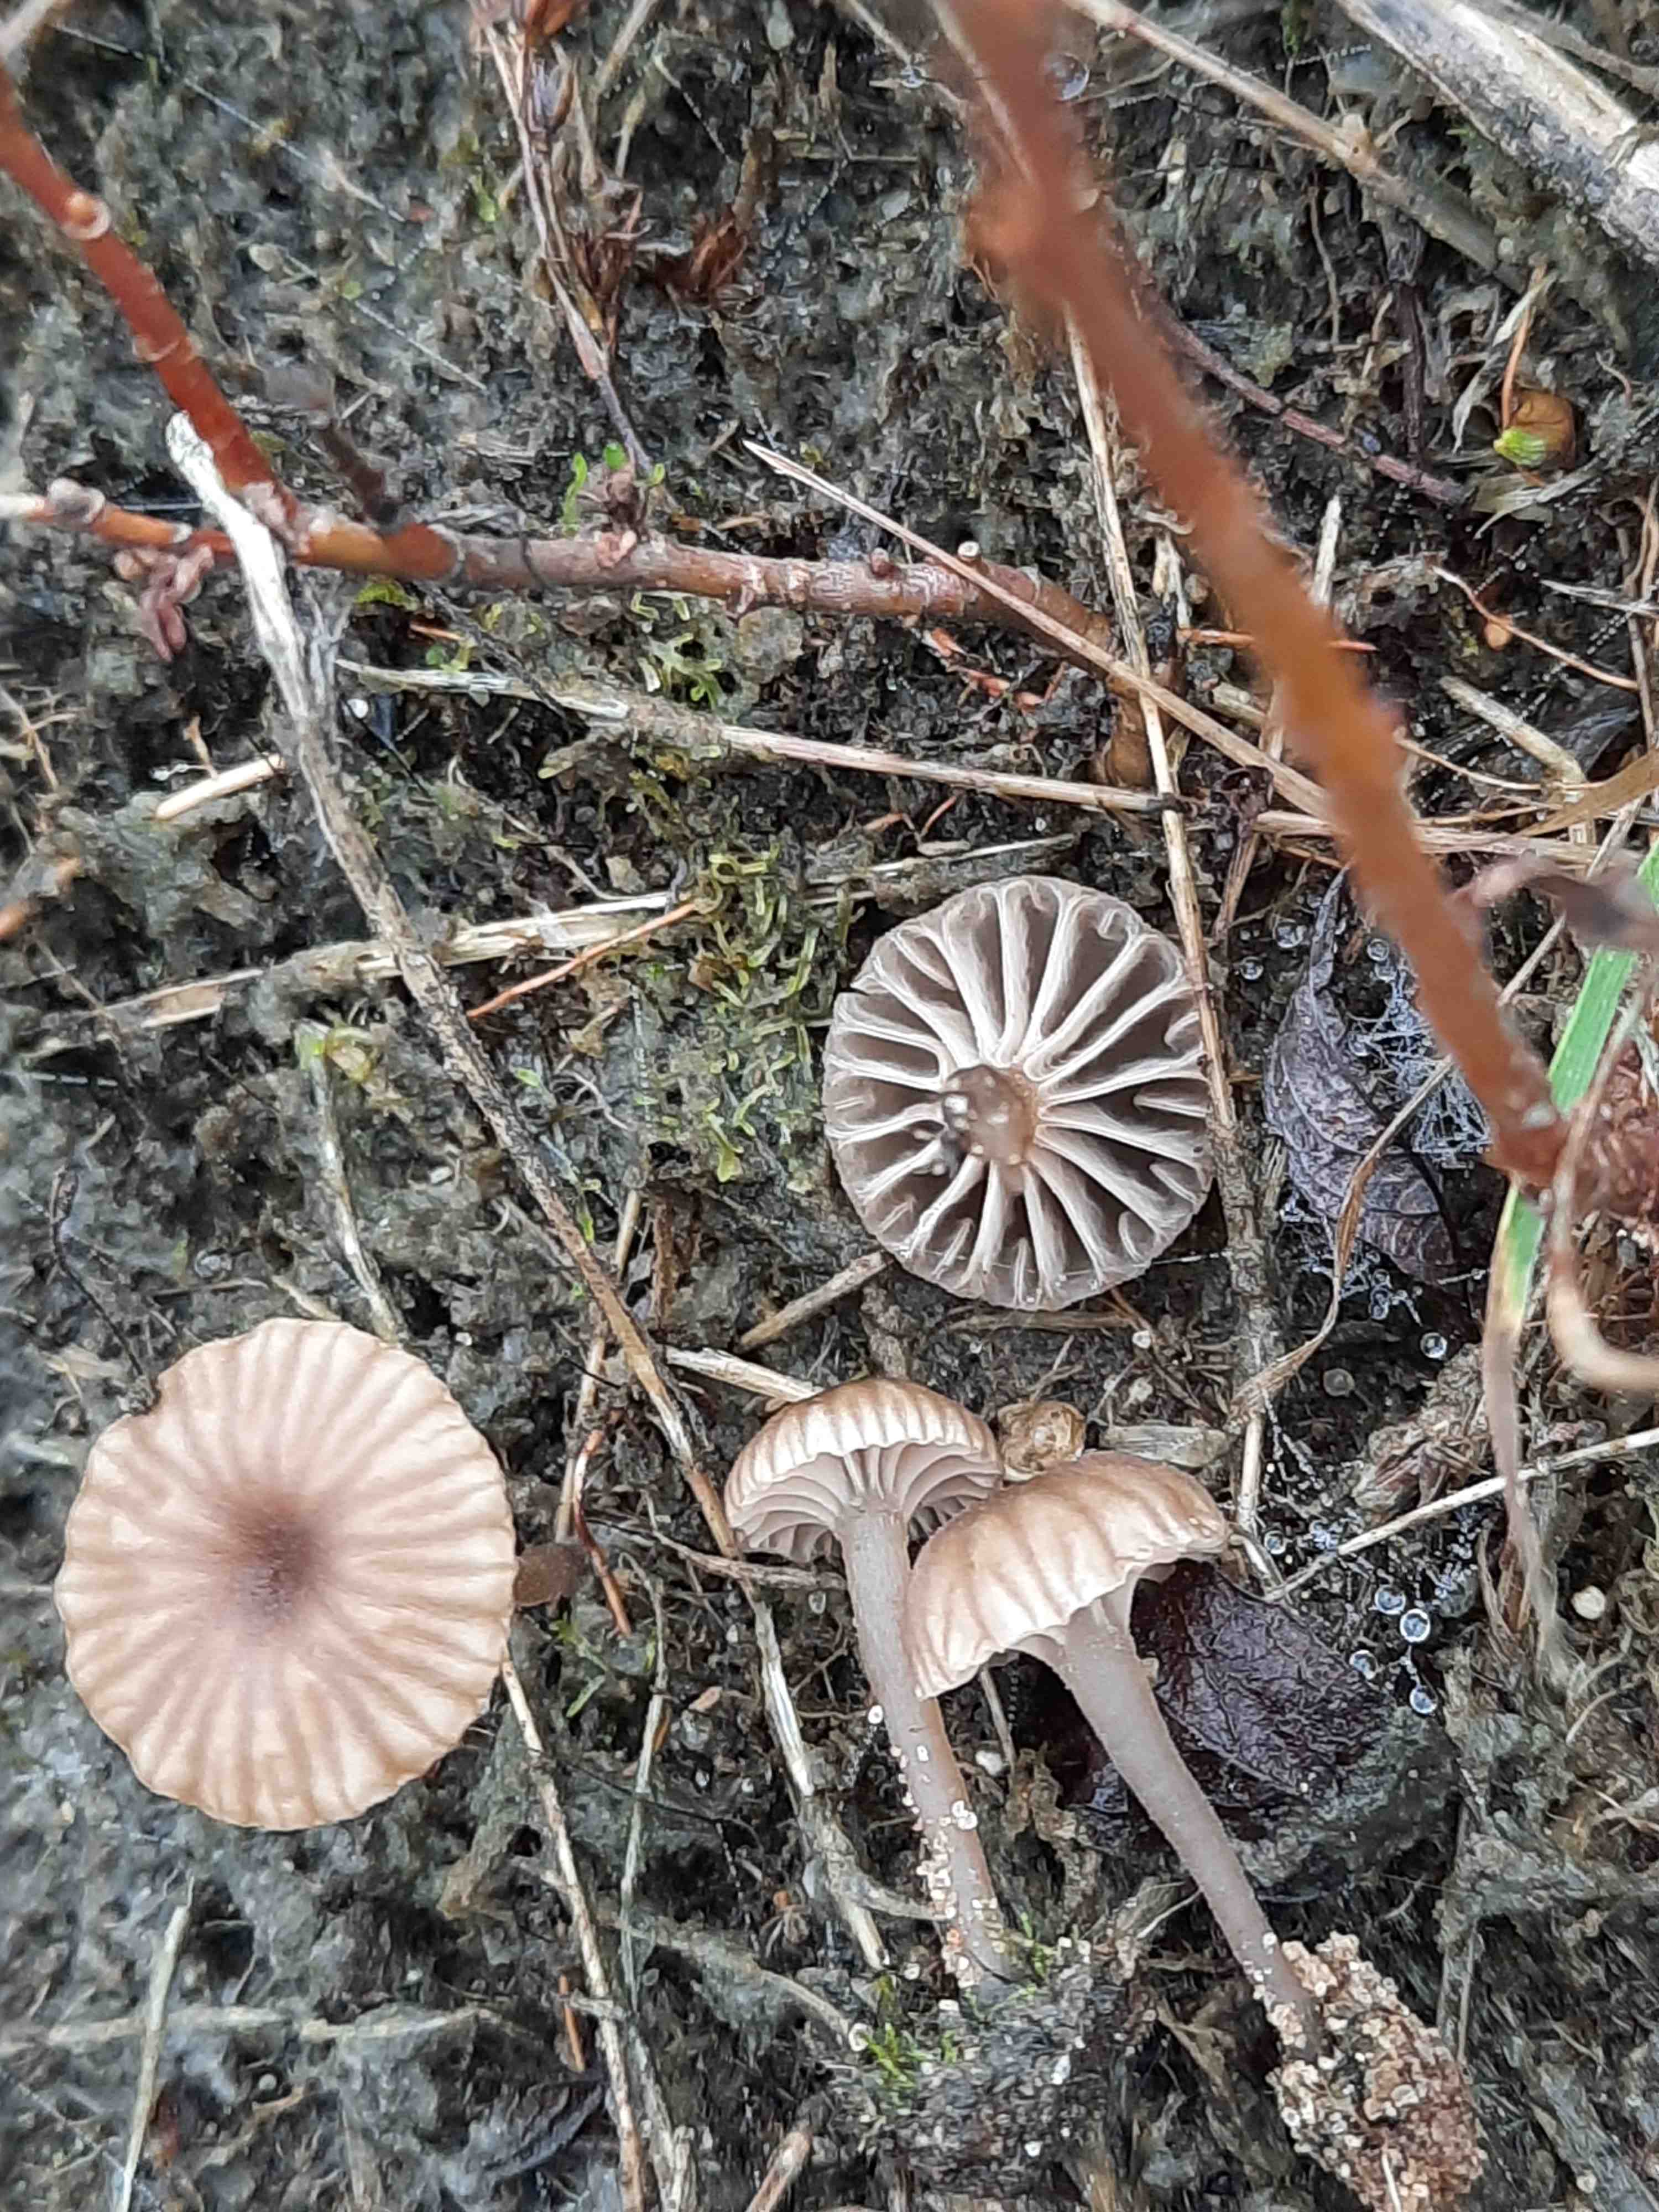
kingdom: Fungi
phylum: Basidiomycota
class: Agaricomycetes
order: Agaricales
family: Hygrophoraceae
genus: Arrhenia
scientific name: Arrhenia obscurata
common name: hede-fontænehat
